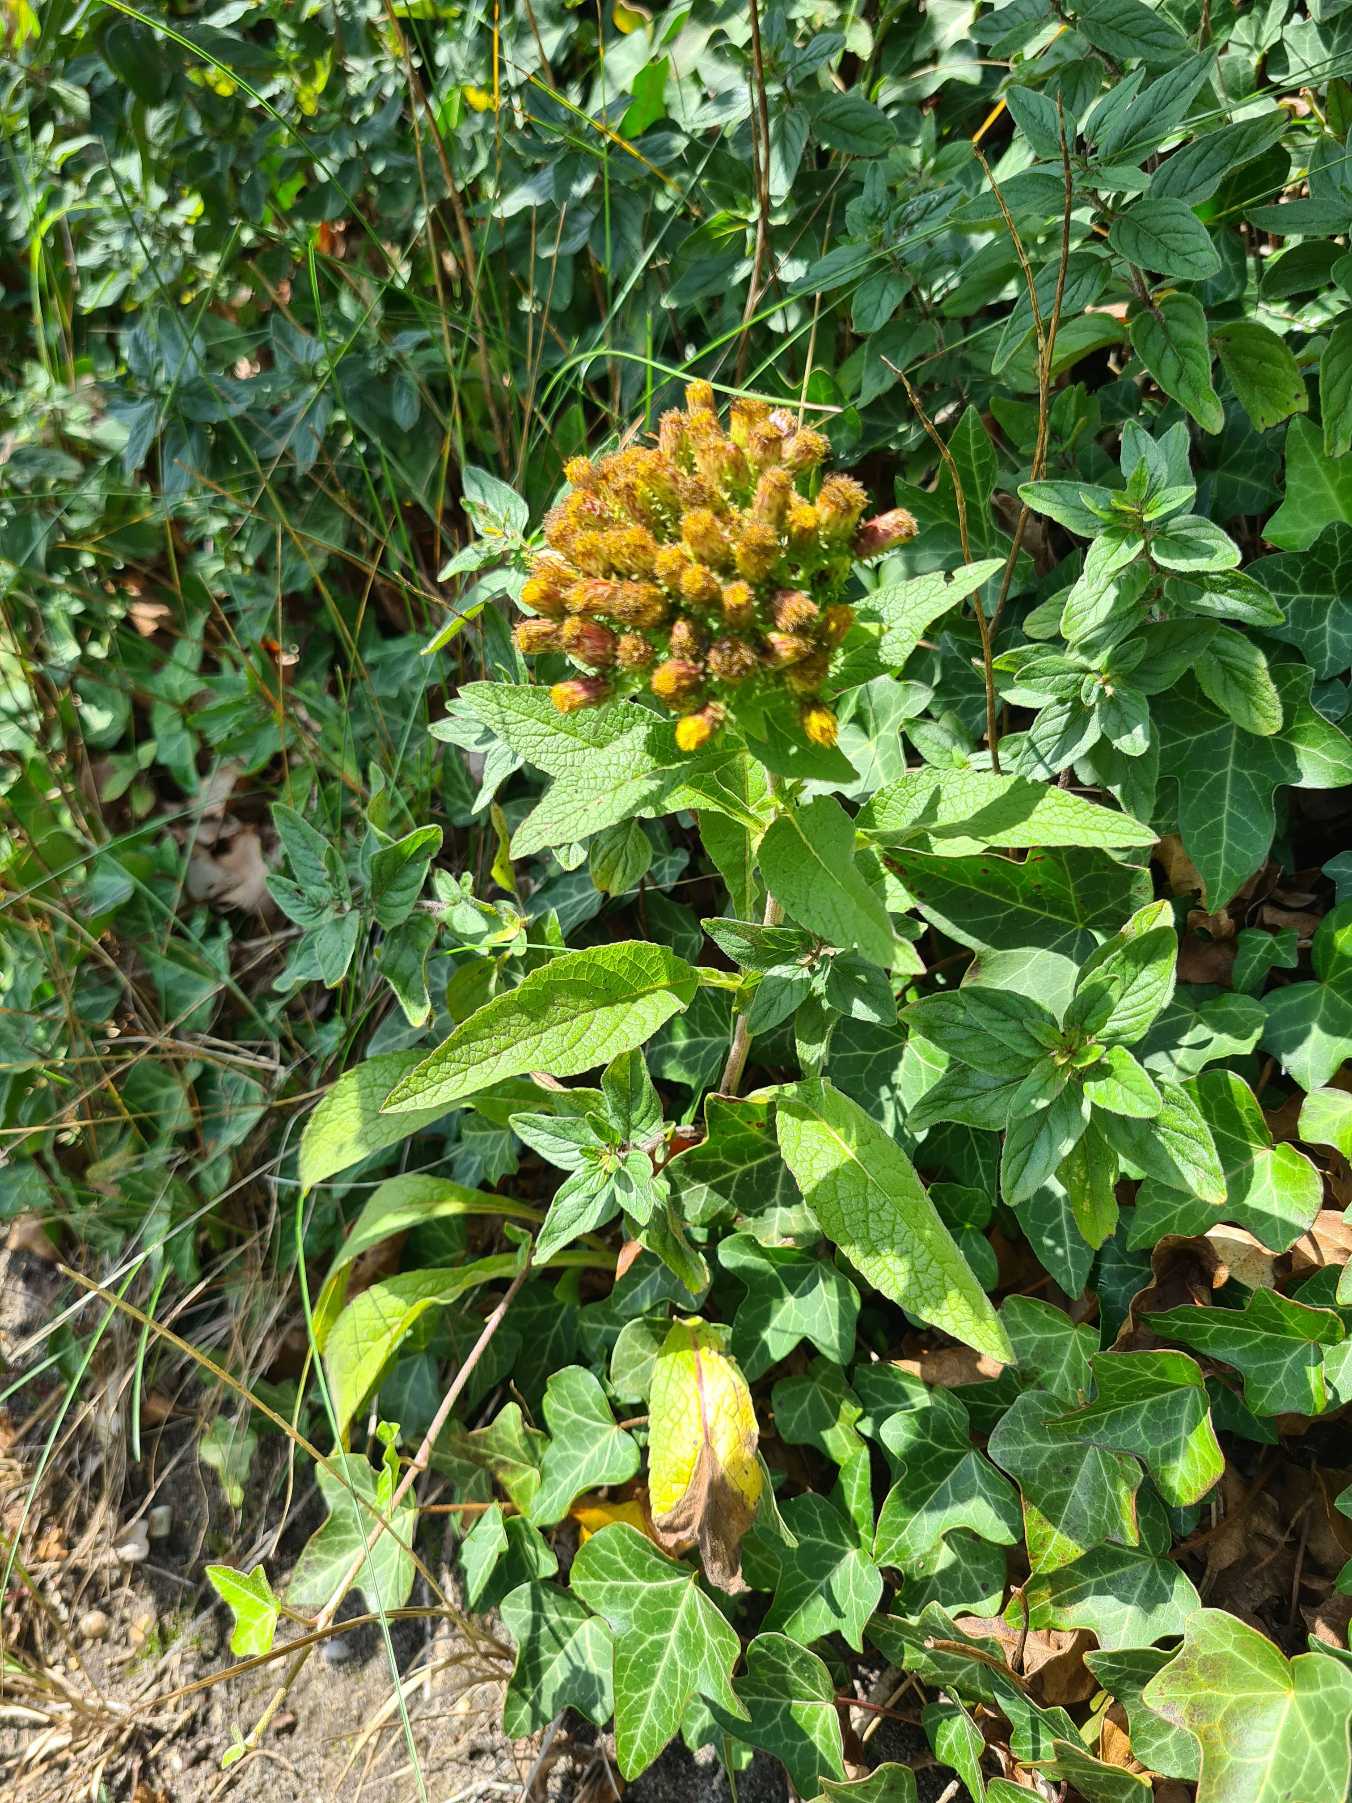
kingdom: Plantae
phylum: Tracheophyta
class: Magnoliopsida
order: Asterales
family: Asteraceae
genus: Pentanema
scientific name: Pentanema squarrosum
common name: Trekløft-alant
